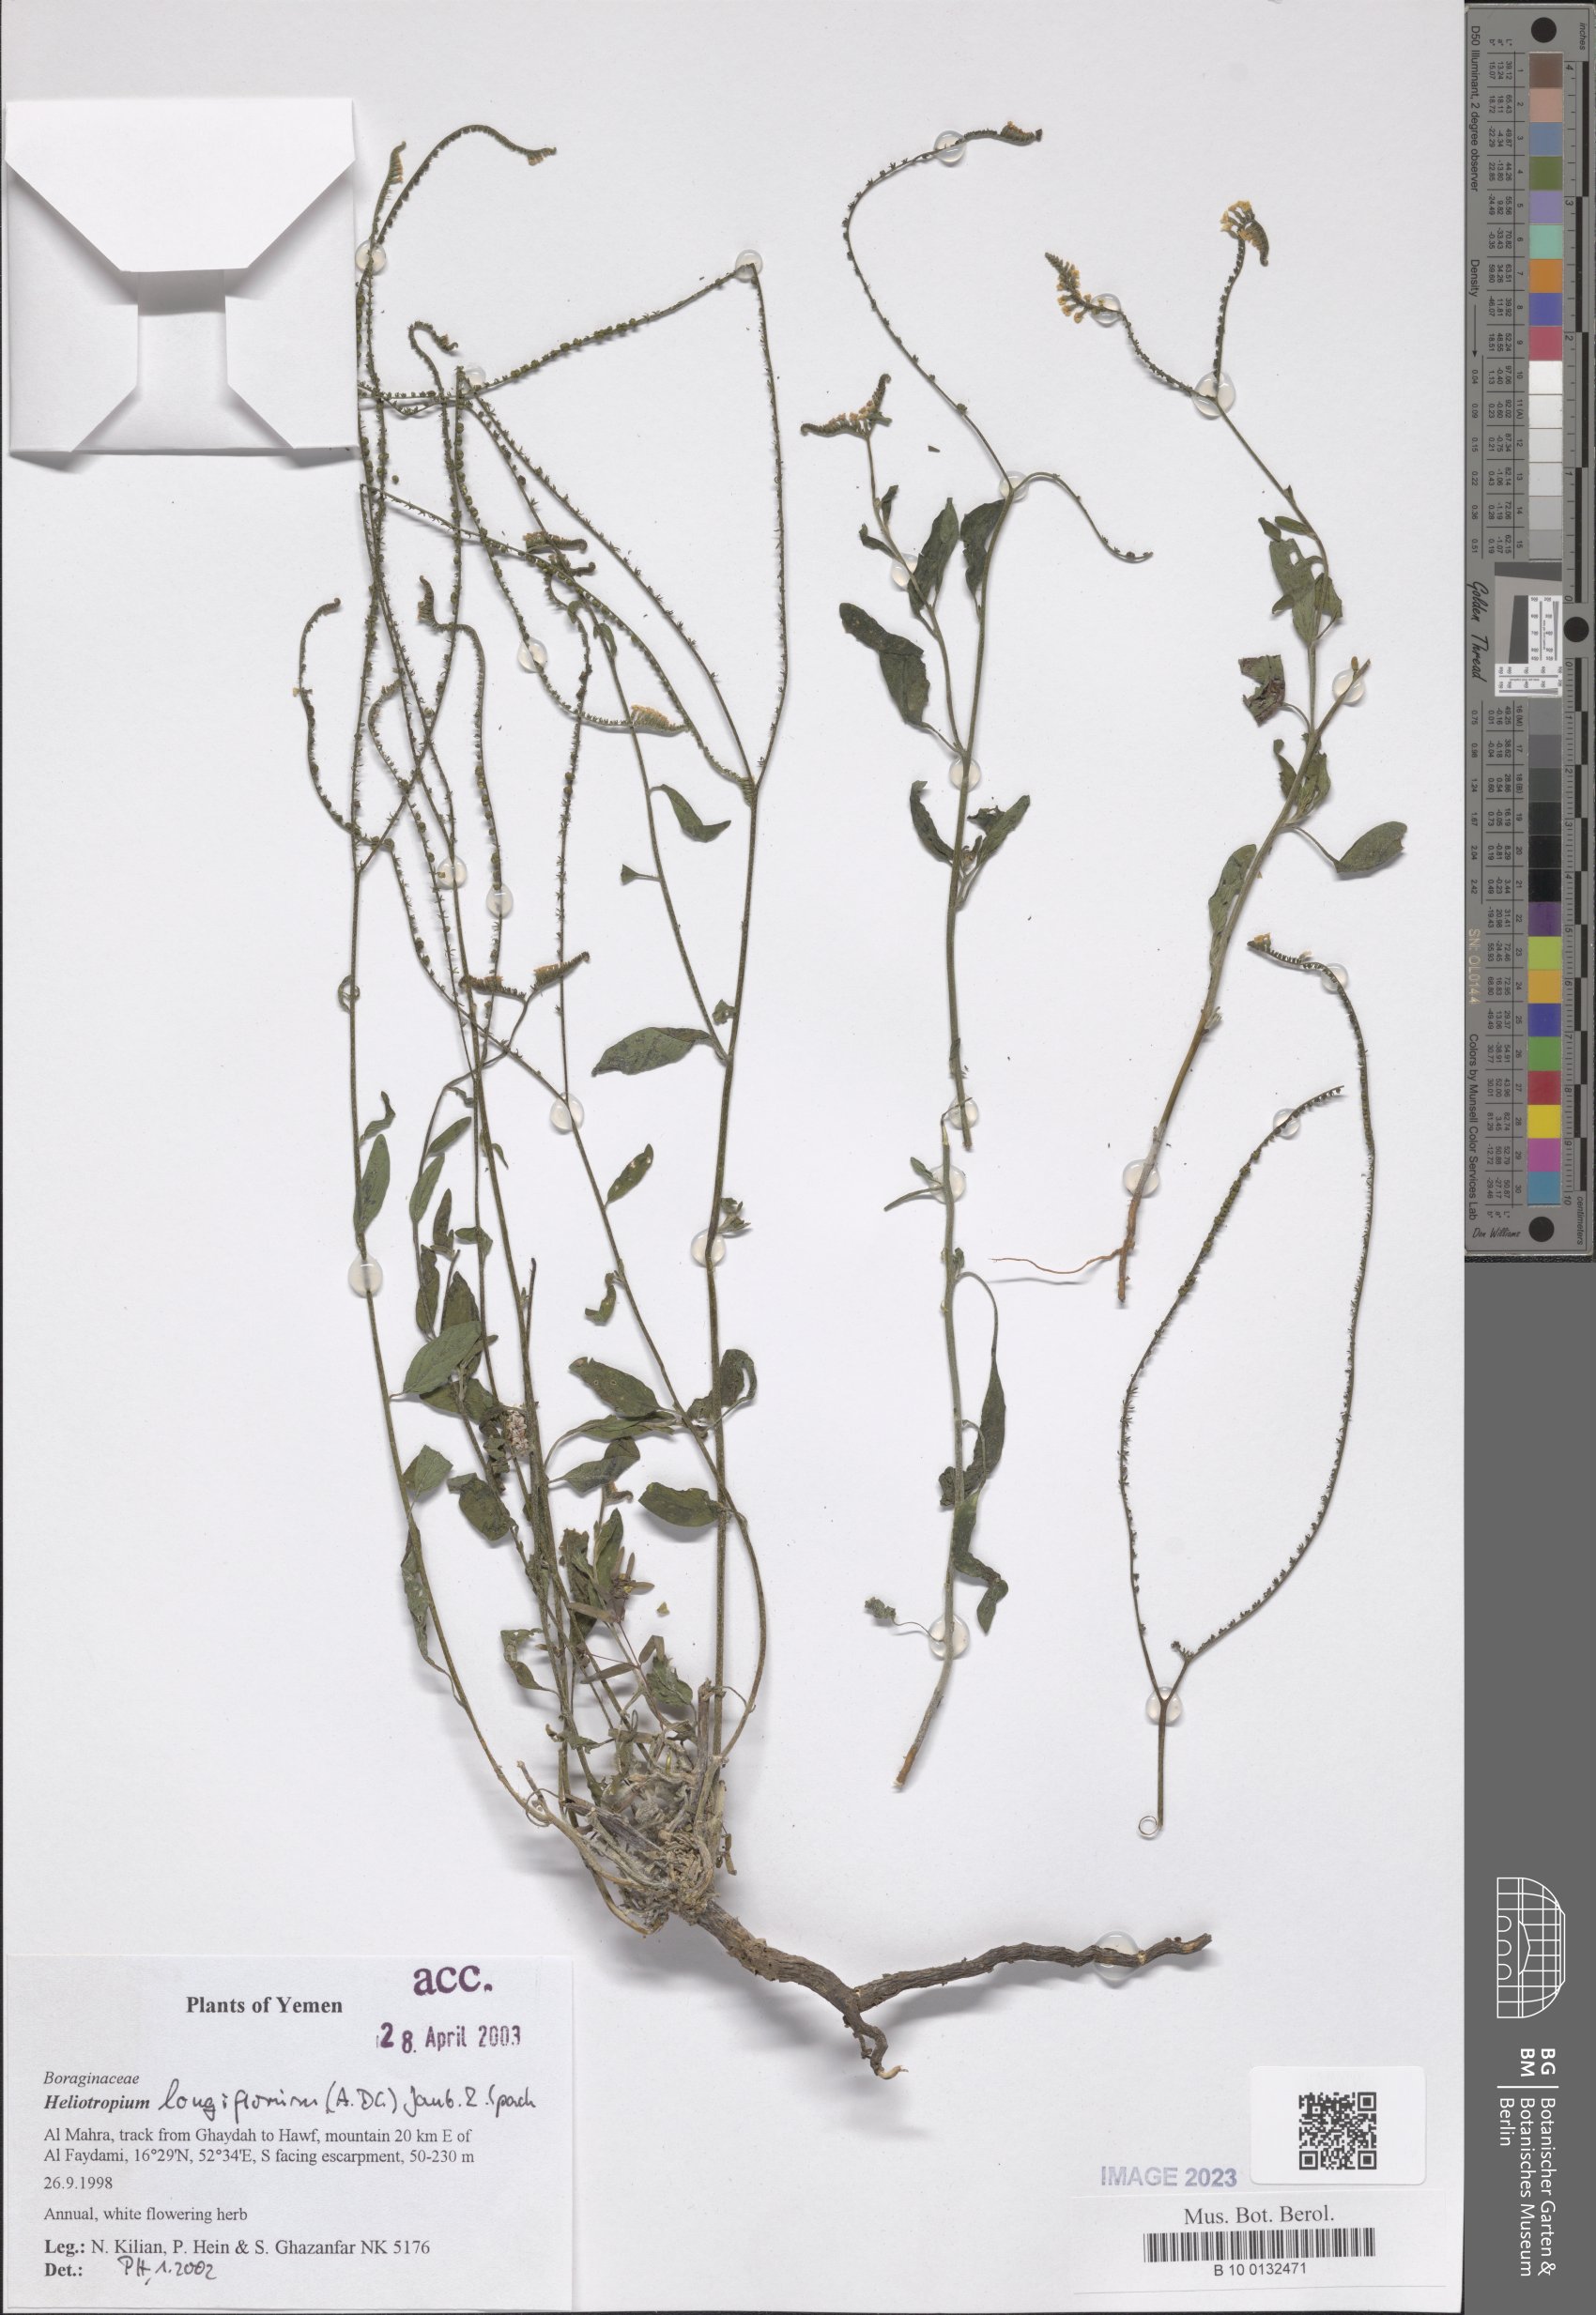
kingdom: Plantae
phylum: Tracheophyta
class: Magnoliopsida
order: Boraginales
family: Heliotropiaceae
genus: Heliotropium
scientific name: Heliotropium longiflorum
